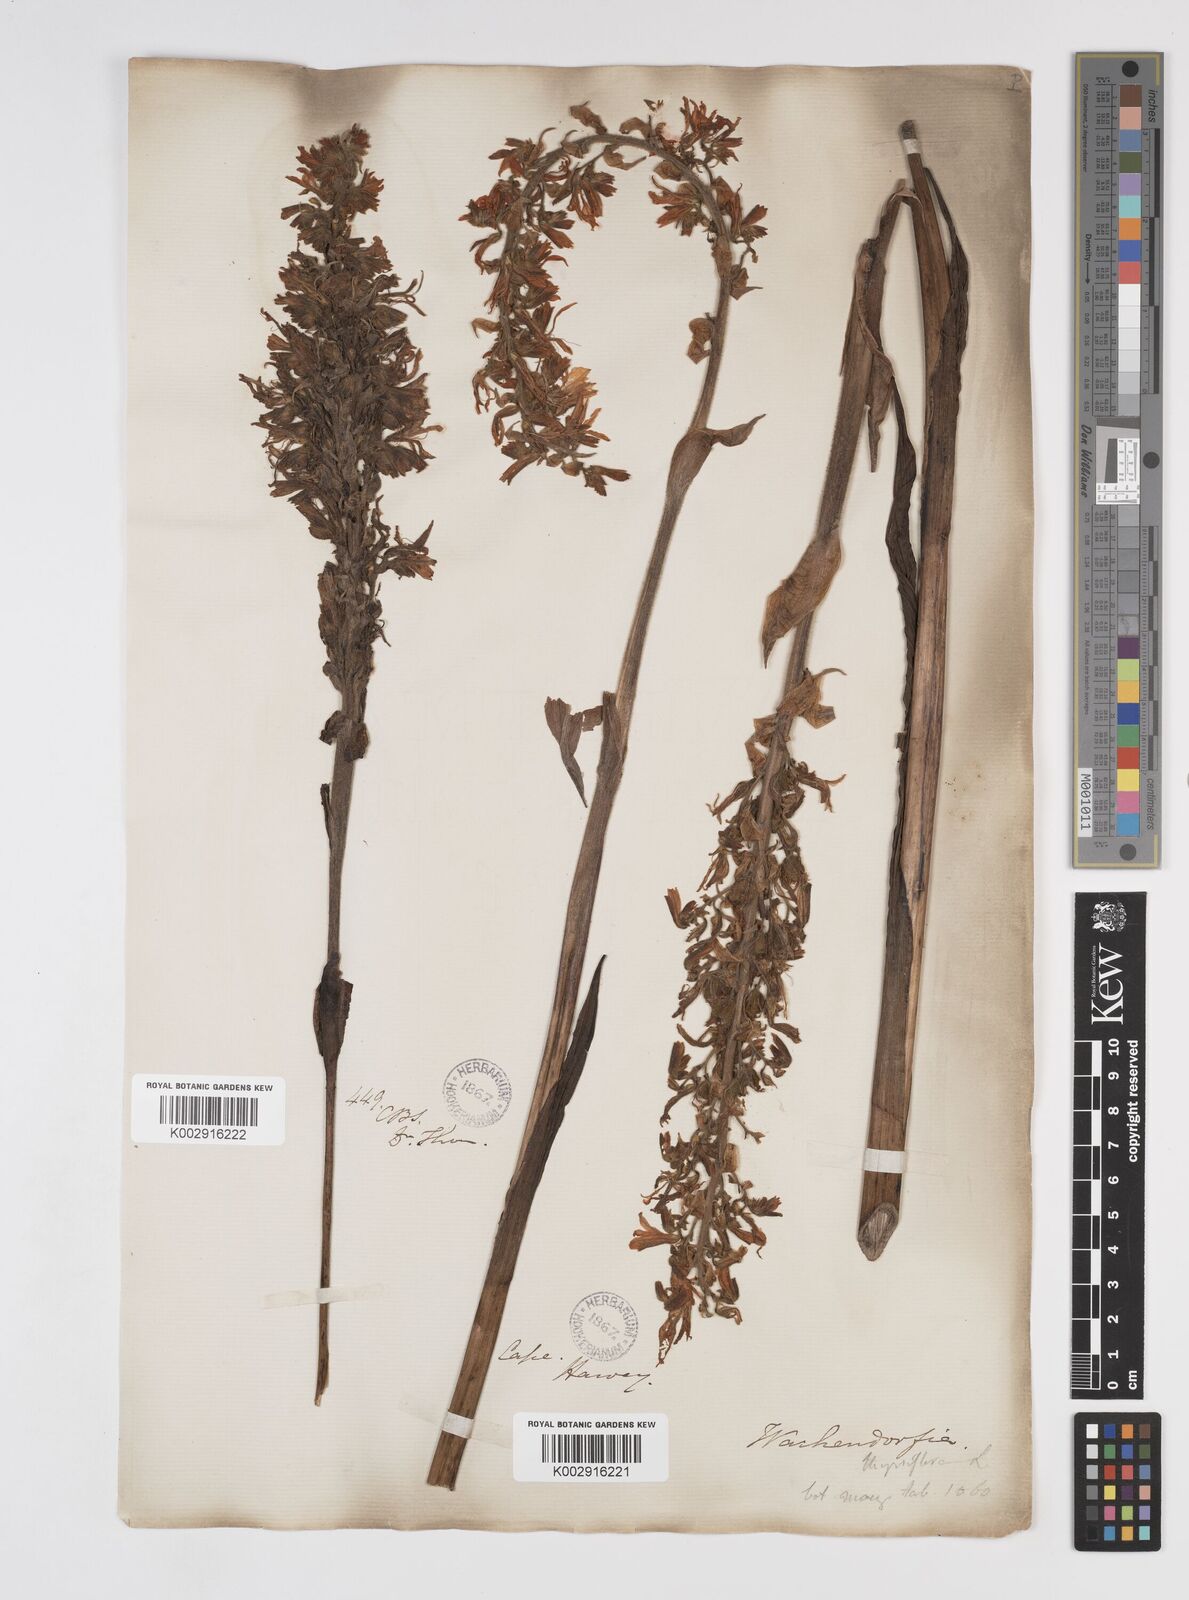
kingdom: Plantae
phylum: Tracheophyta
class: Liliopsida
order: Commelinales
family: Haemodoraceae
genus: Wachendorfia
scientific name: Wachendorfia thyrsiflora
